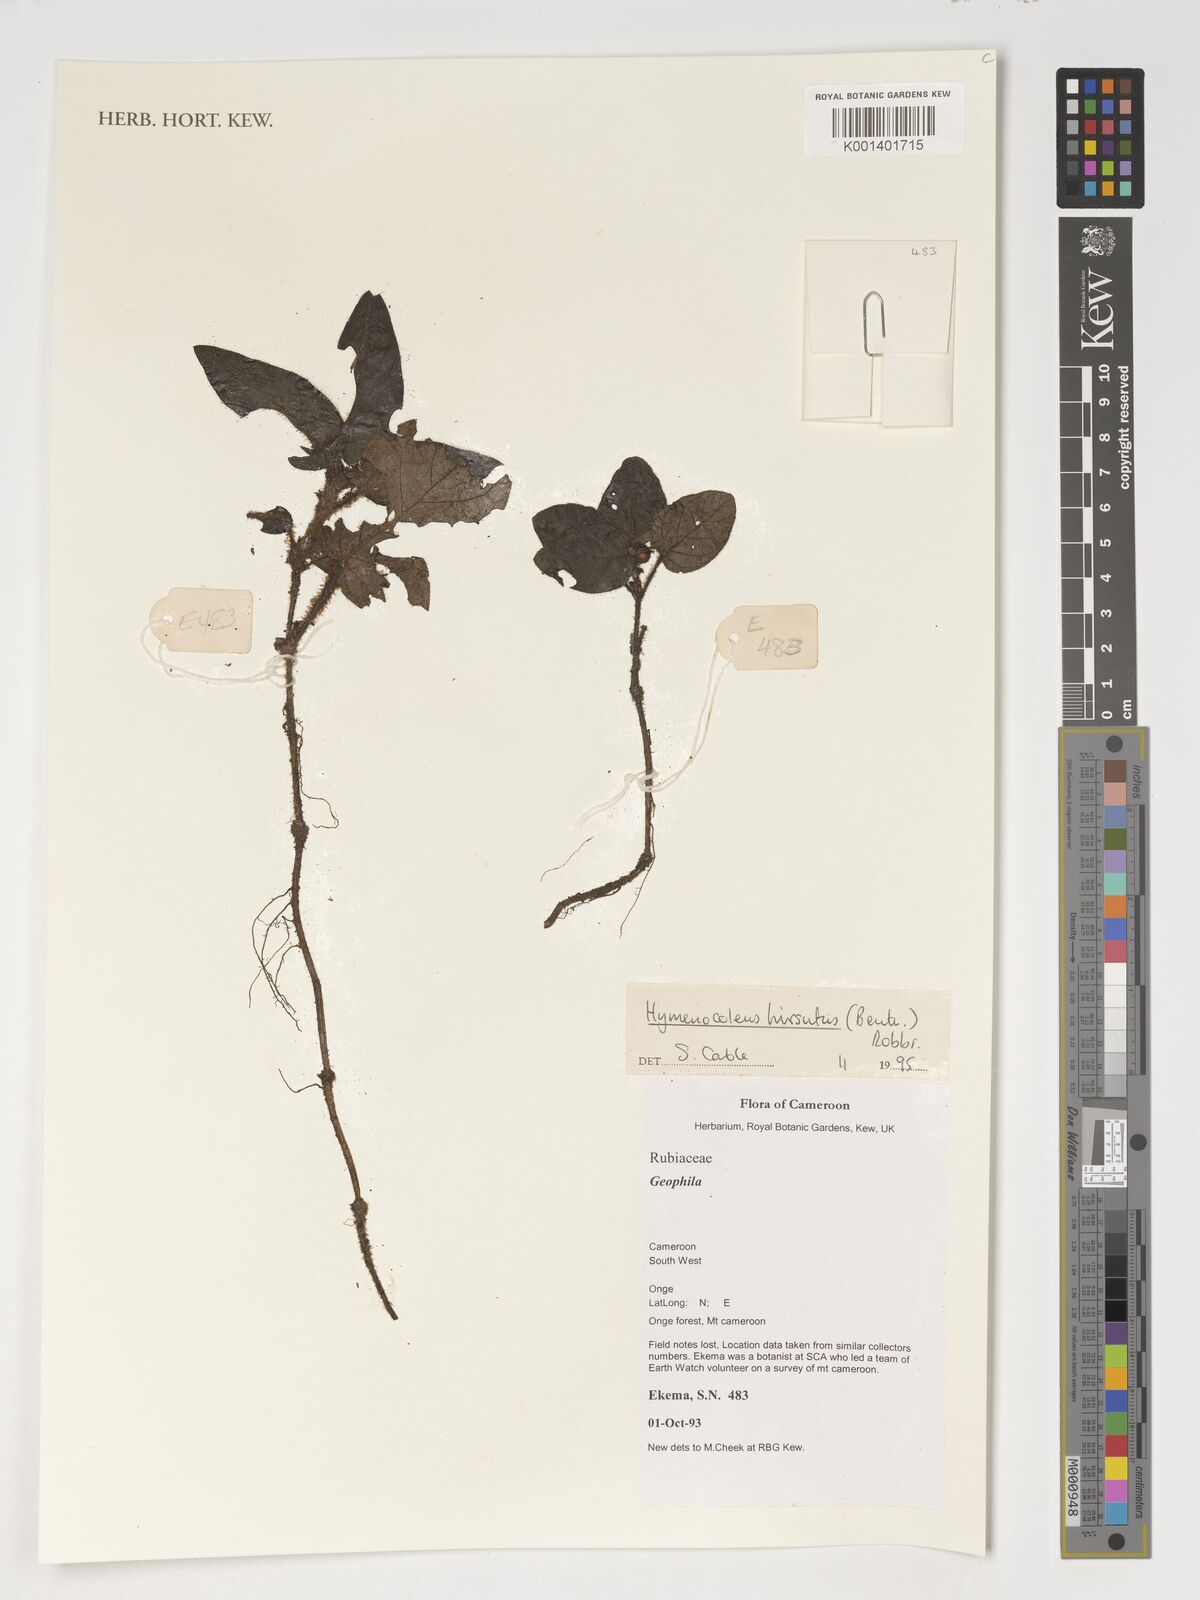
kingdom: Plantae
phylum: Tracheophyta
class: Magnoliopsida
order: Gentianales
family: Rubiaceae
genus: Hymenocoleus
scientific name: Hymenocoleus hirsutus
